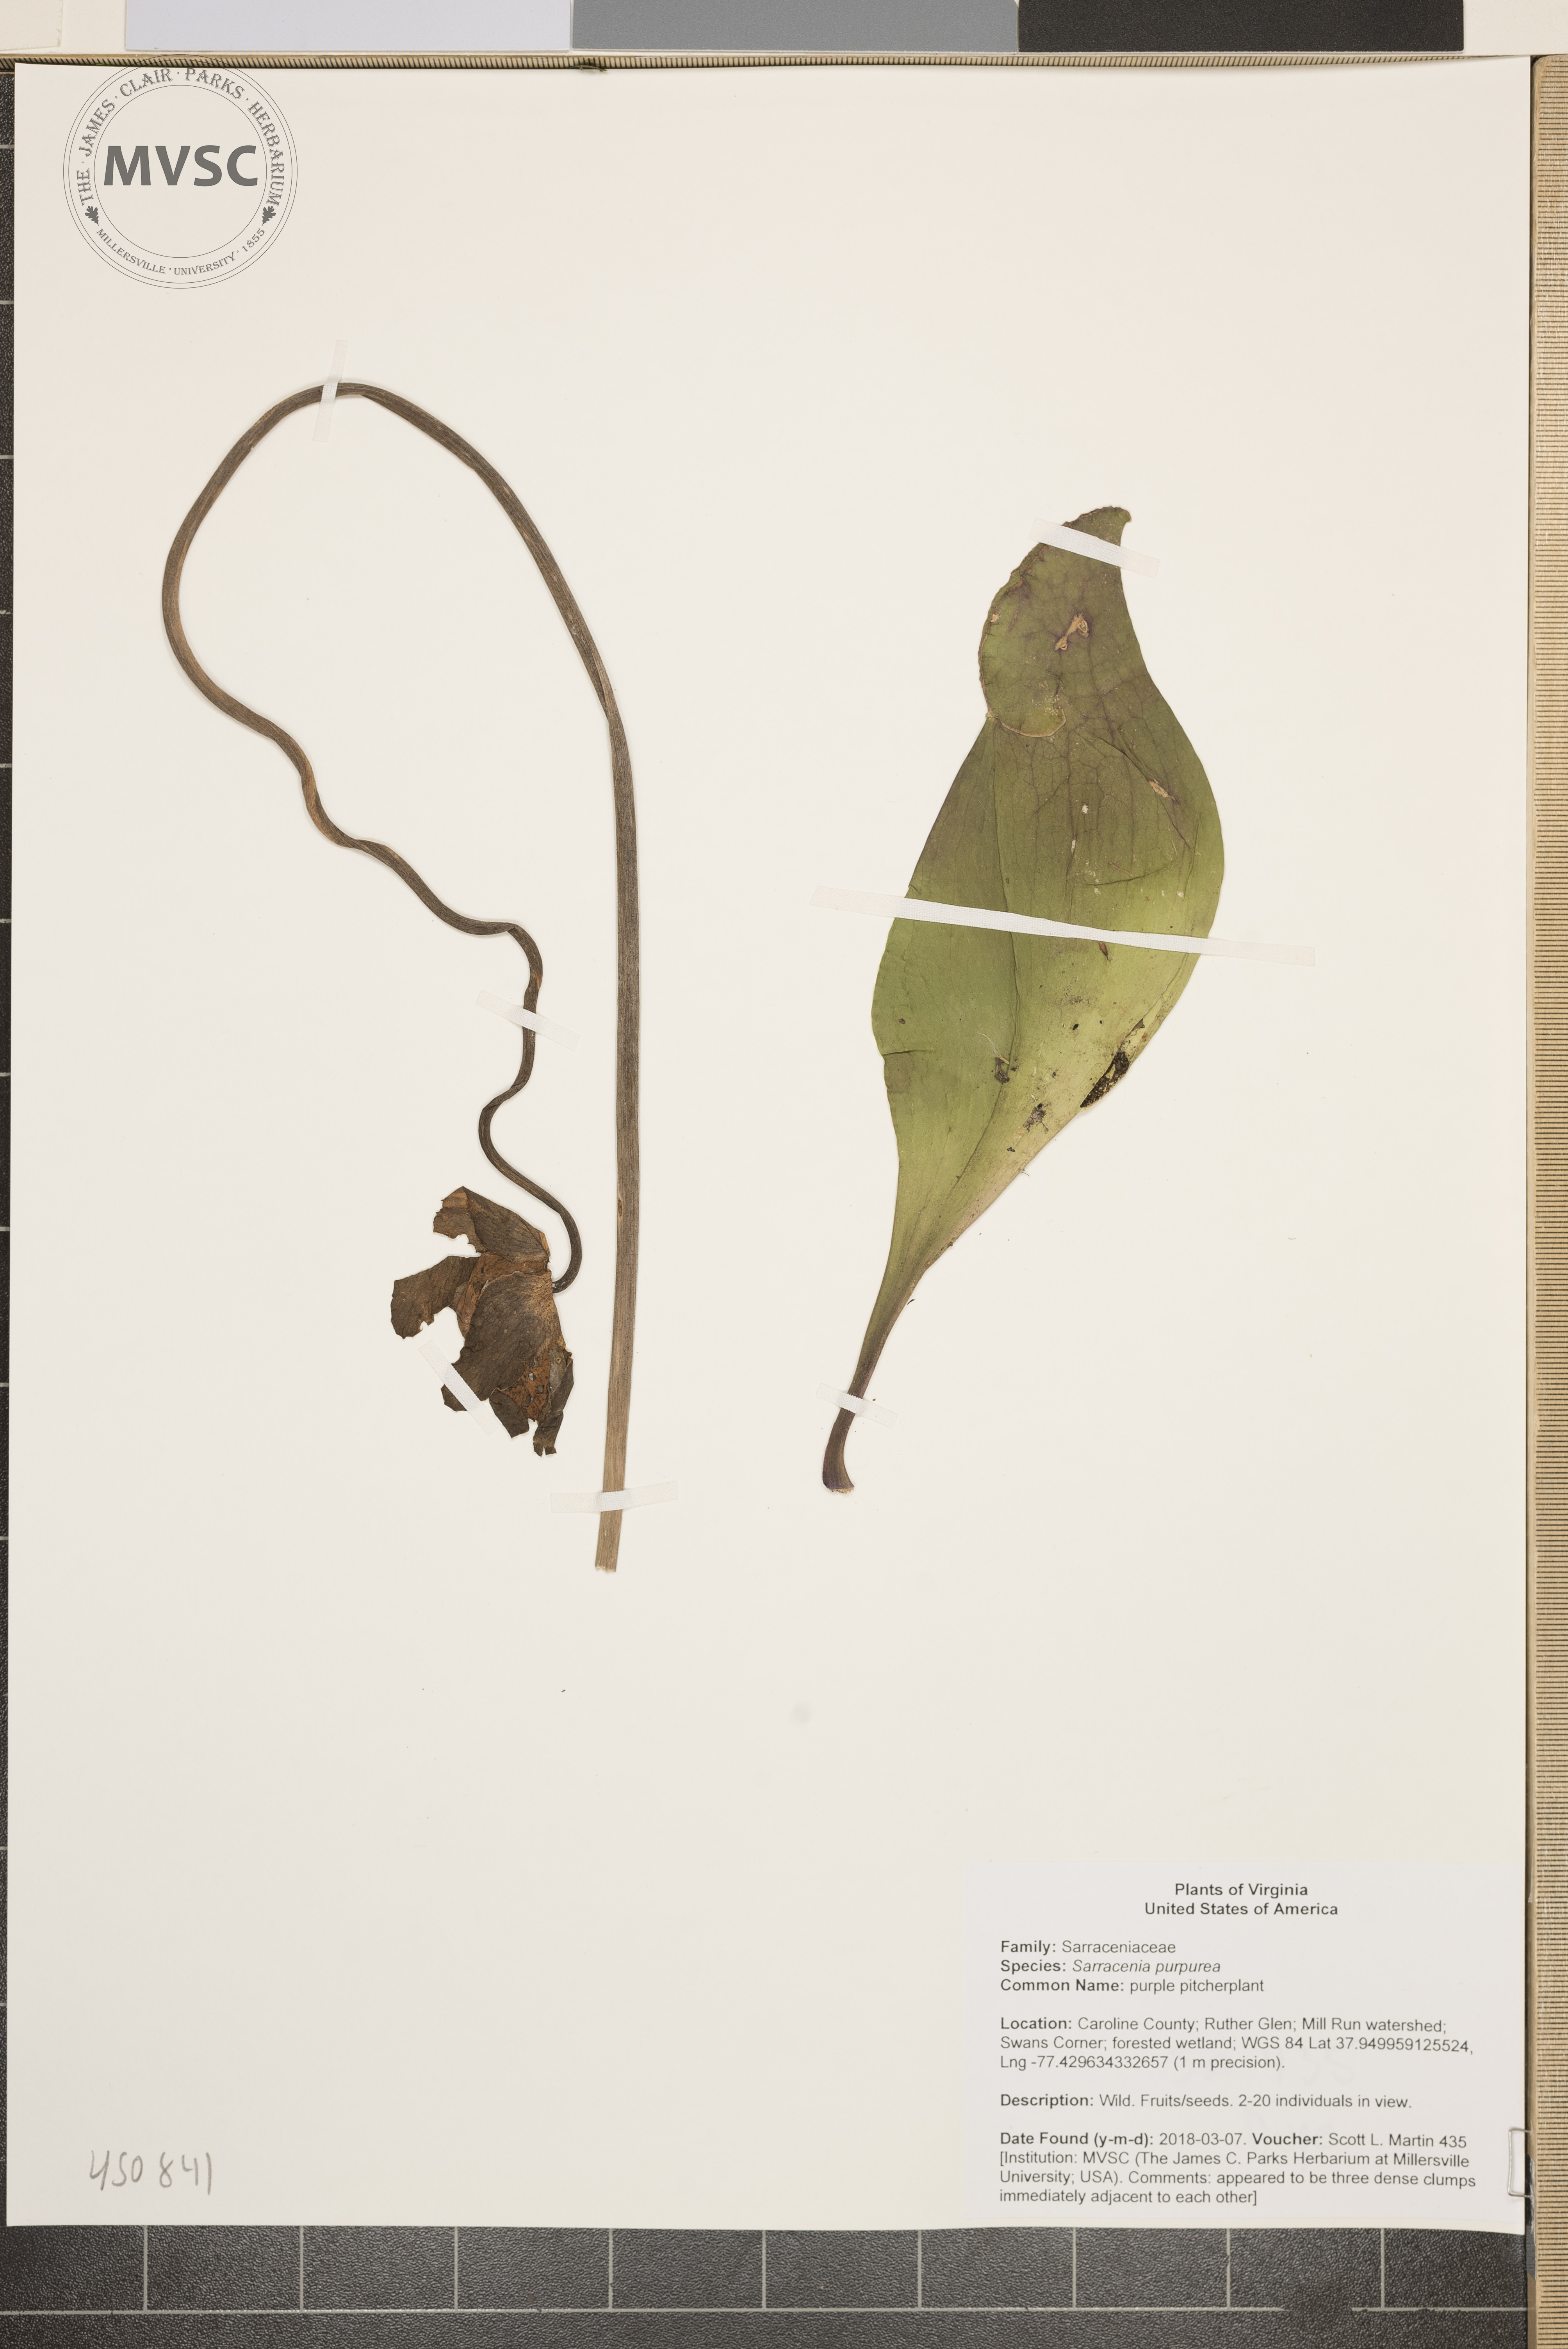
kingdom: Plantae
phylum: Tracheophyta
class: Magnoliopsida
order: Ericales
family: Sarraceniaceae
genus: Sarracenia
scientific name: Sarracenia purpurea
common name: purple pitcherplant
